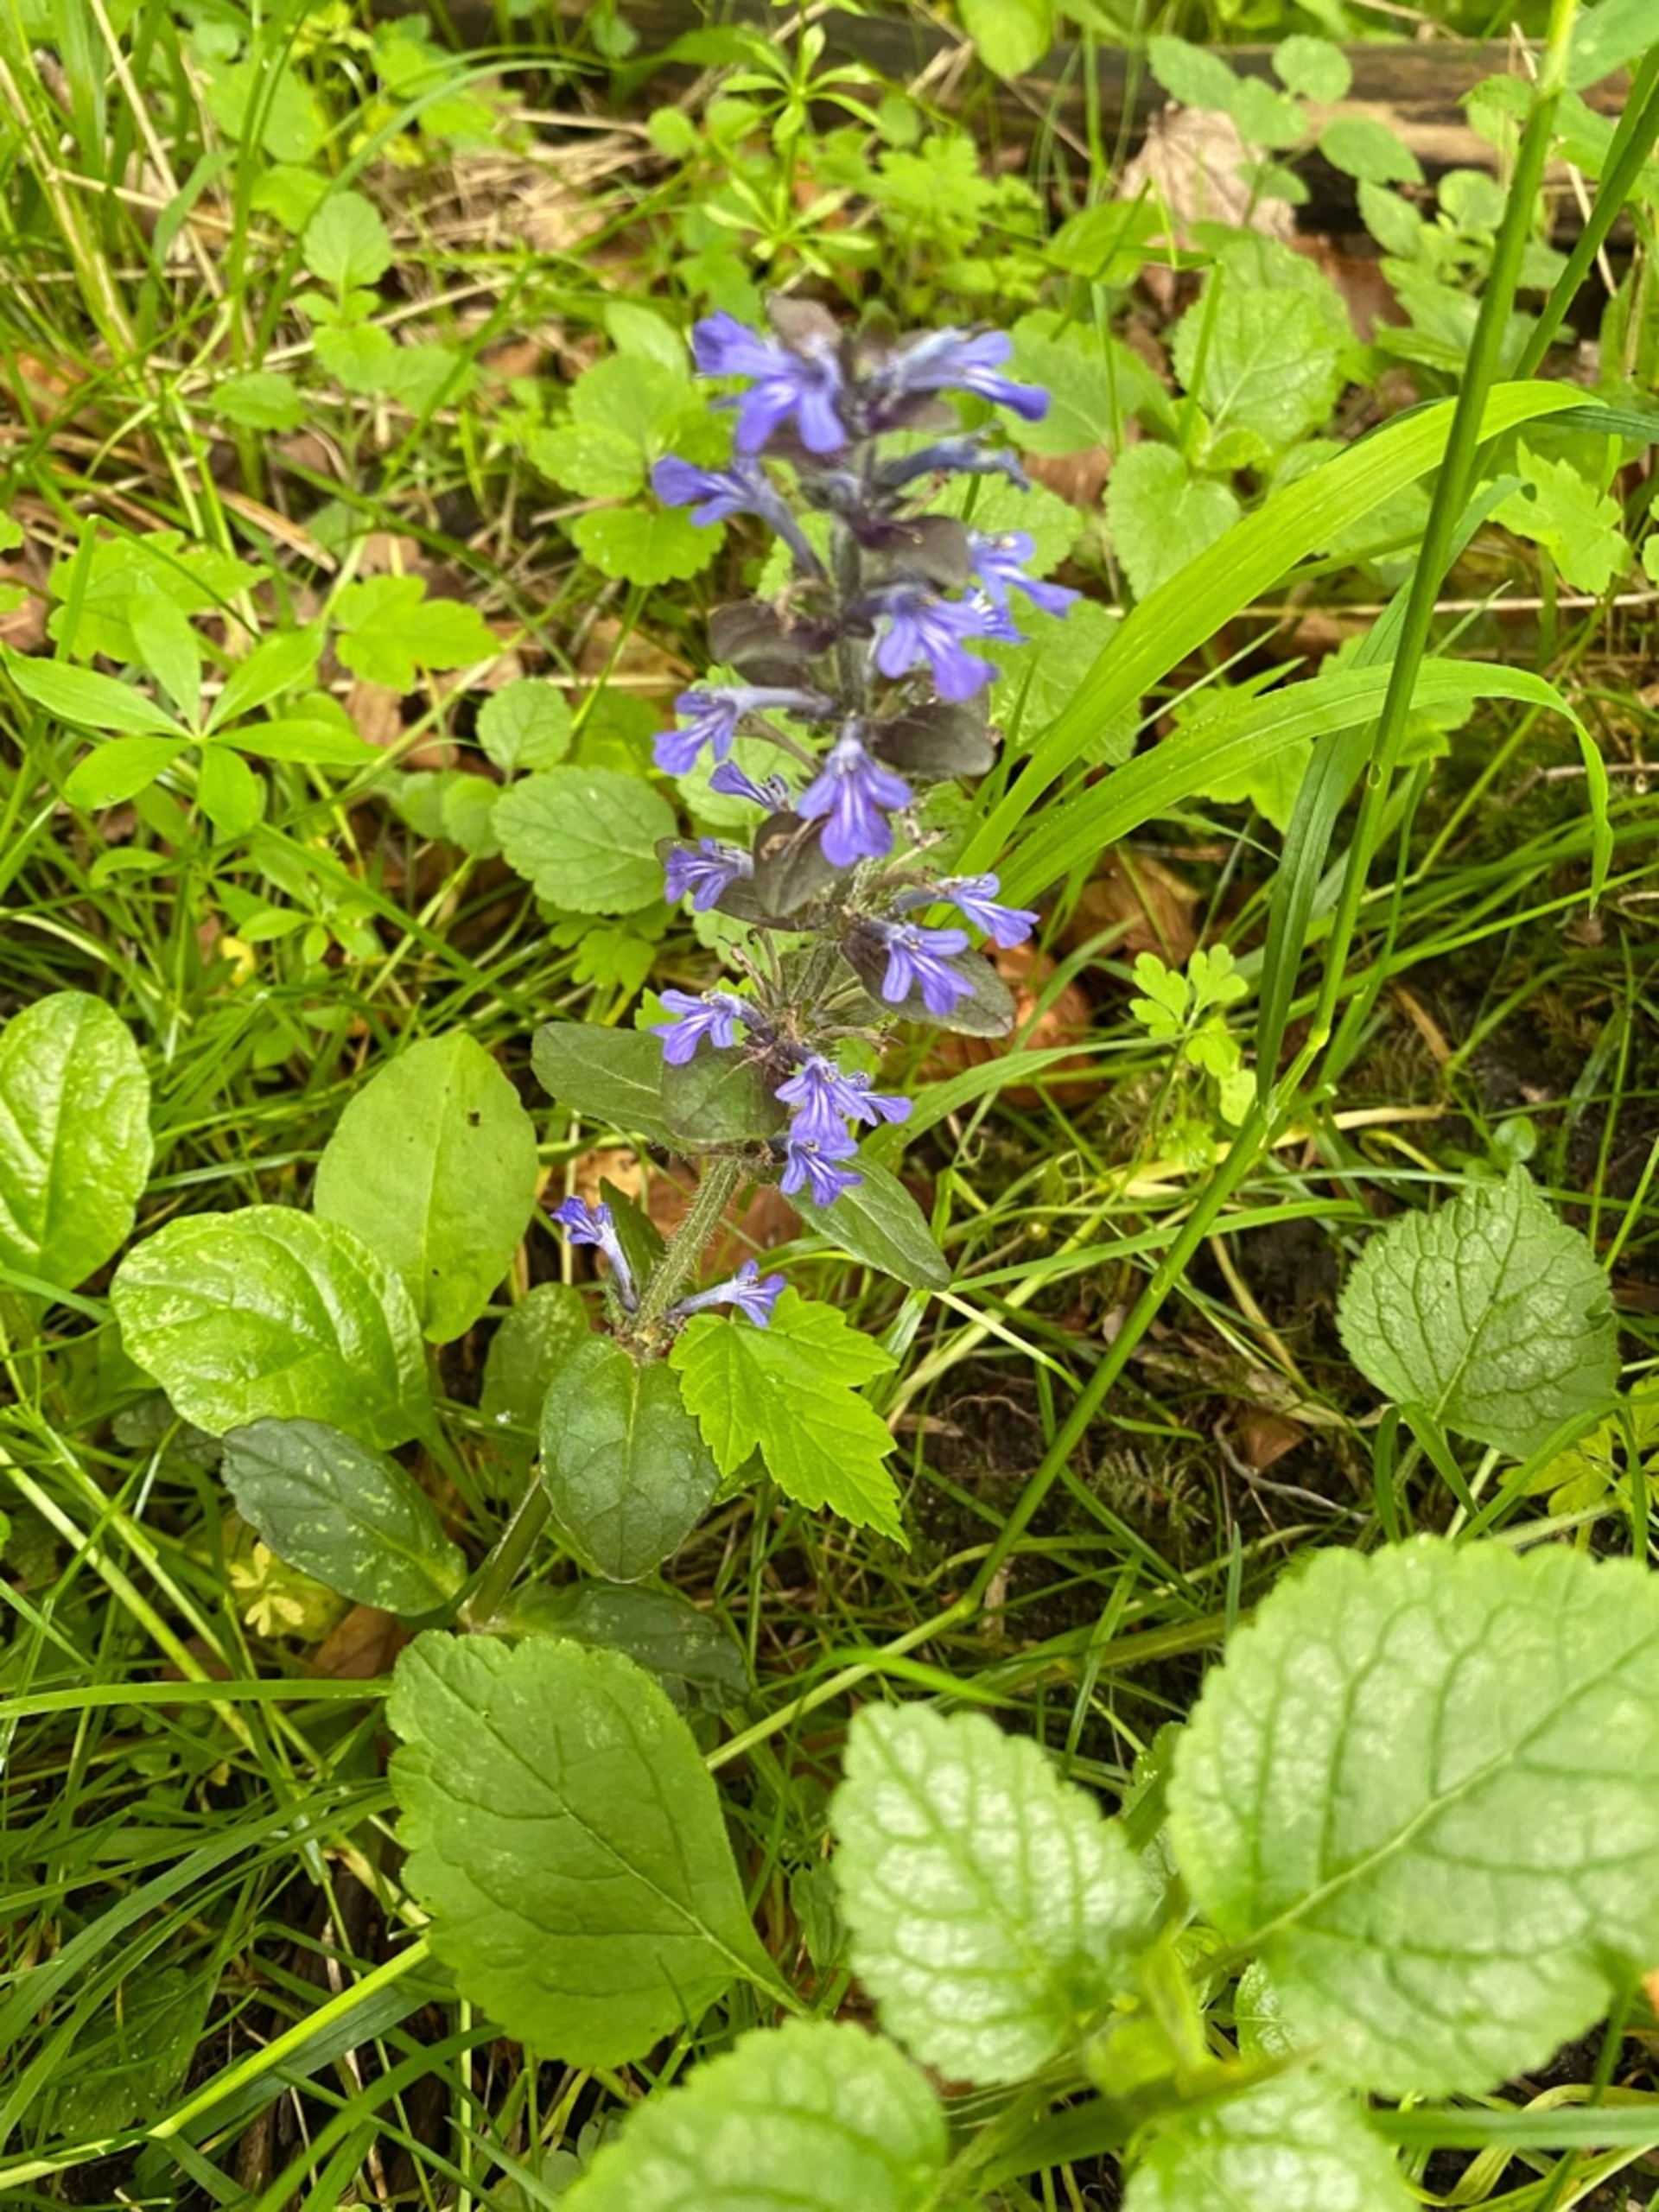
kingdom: Plantae
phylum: Tracheophyta
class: Magnoliopsida
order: Lamiales
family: Lamiaceae
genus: Ajuga
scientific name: Ajuga reptans
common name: Krybende læbeløs
